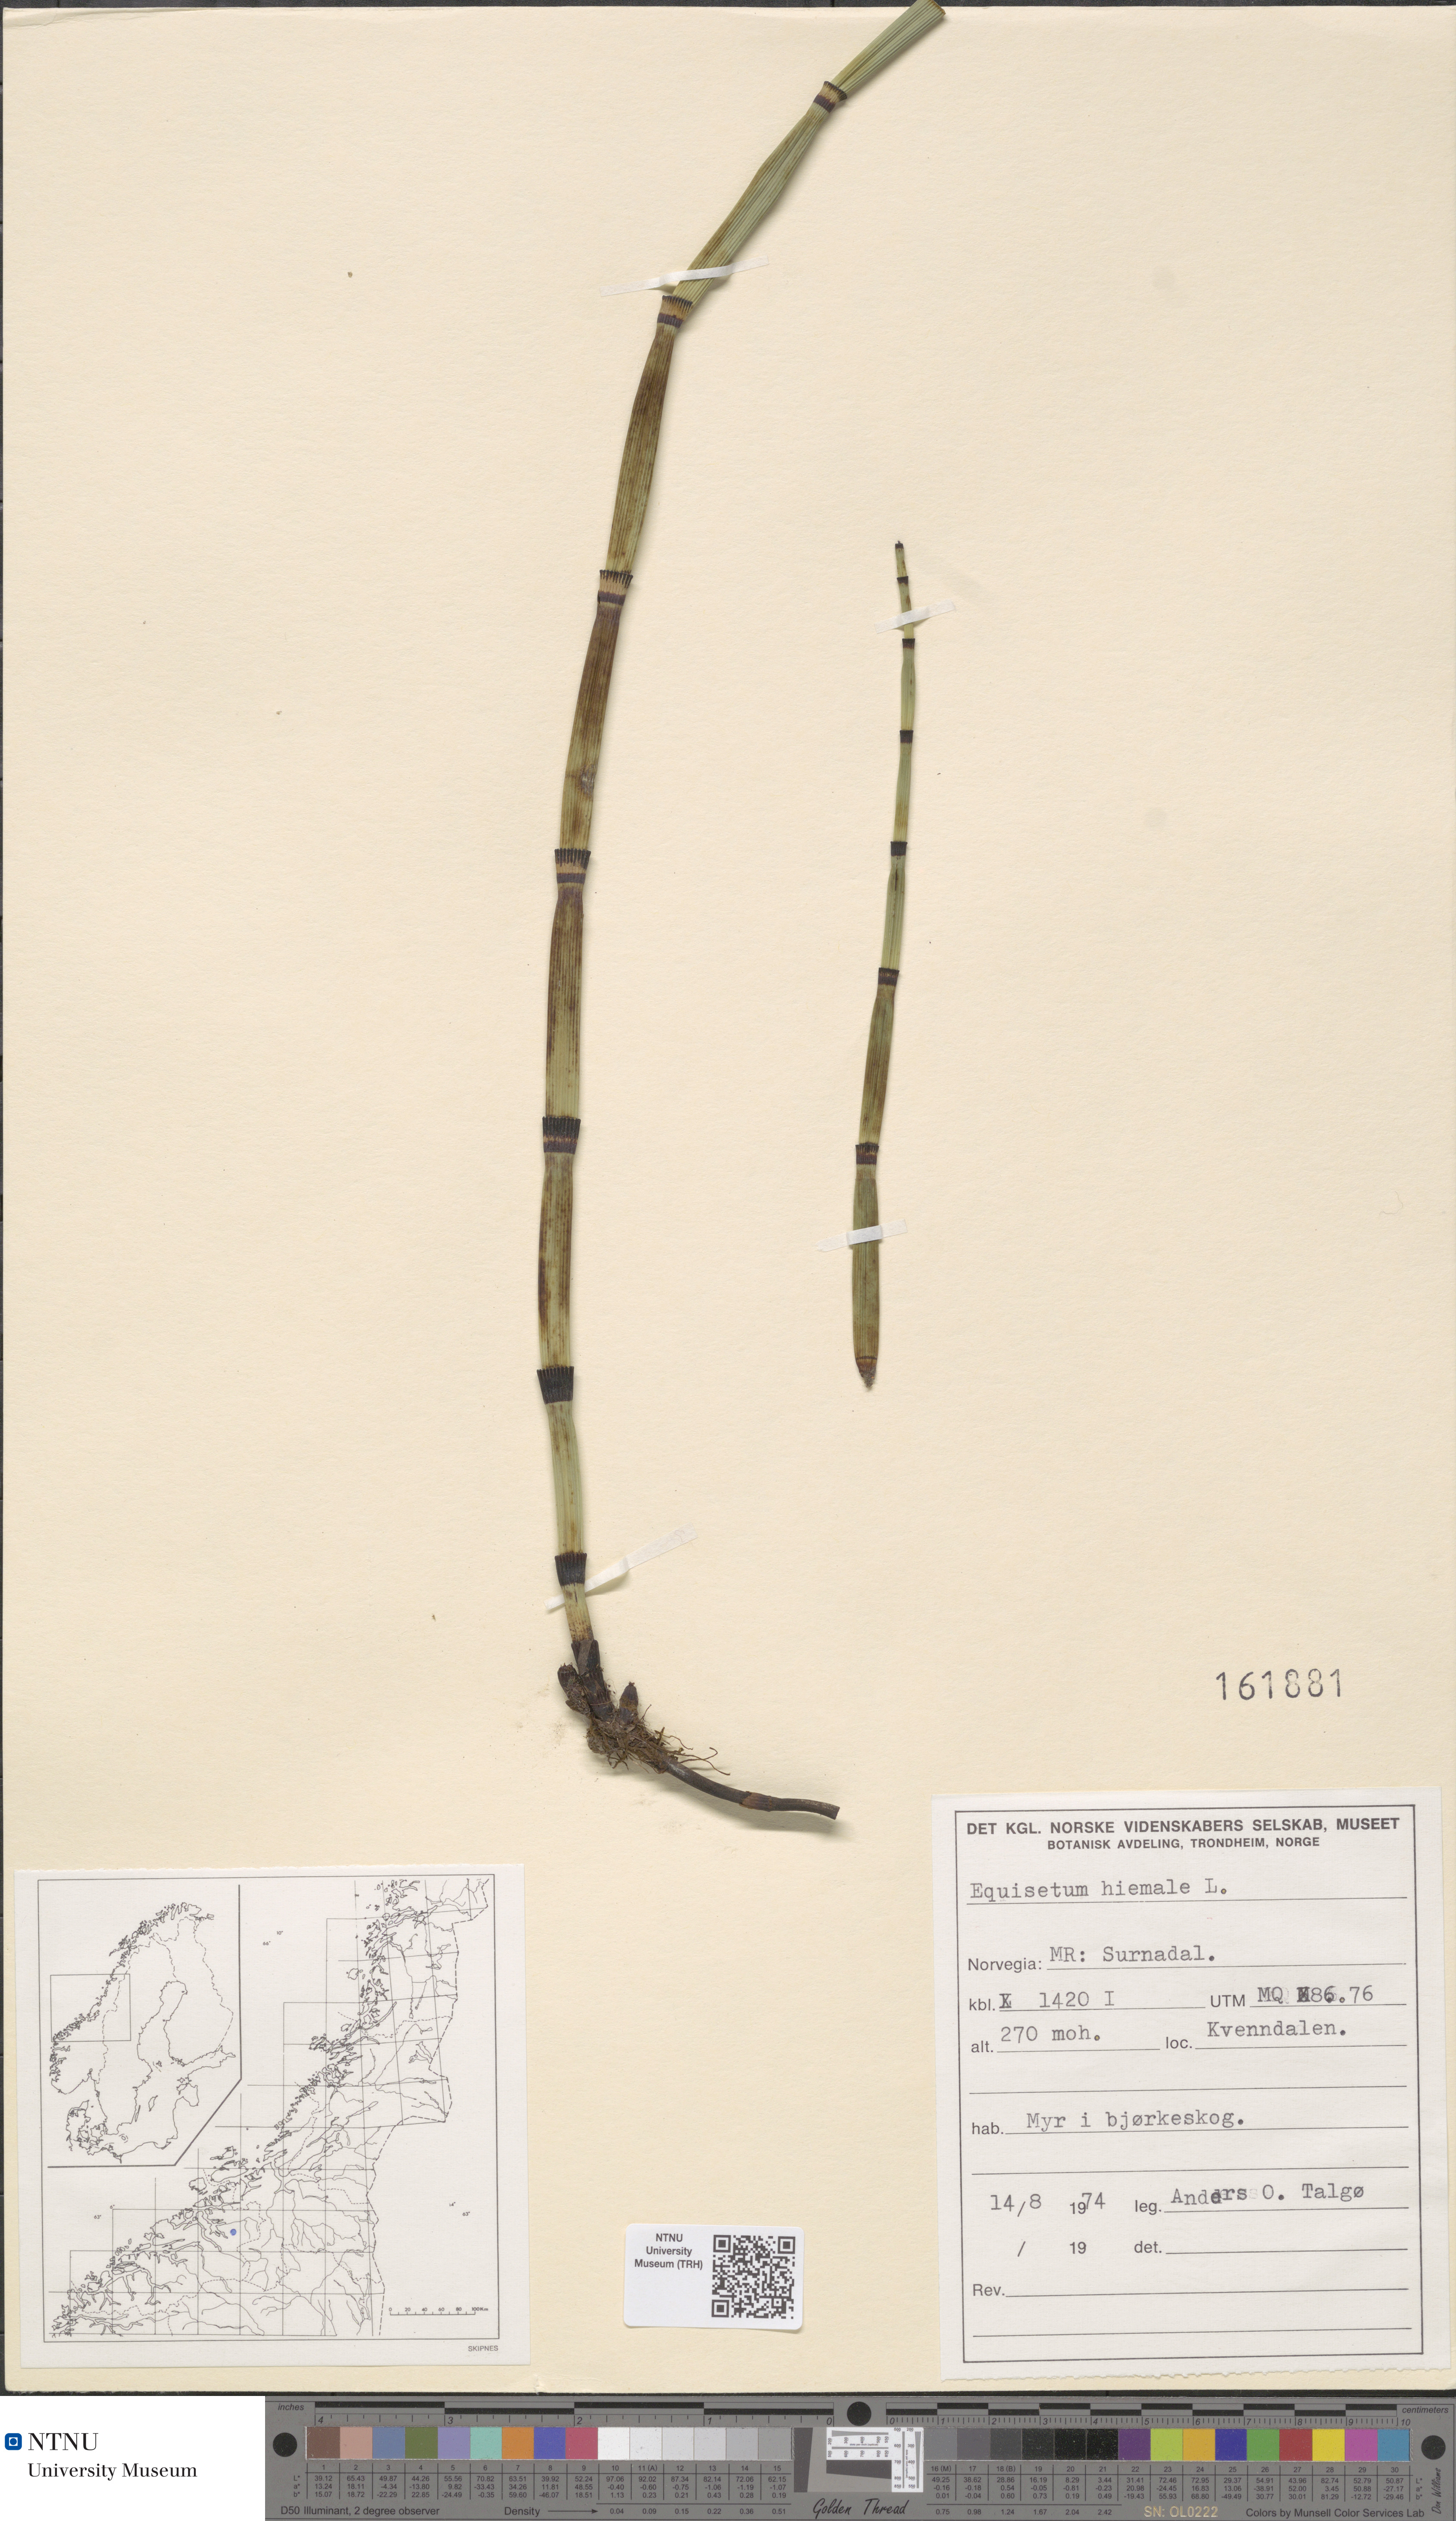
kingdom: Plantae
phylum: Tracheophyta
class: Polypodiopsida
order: Equisetales
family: Equisetaceae
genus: Equisetum
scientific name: Equisetum hyemale
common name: Rough horsetail
